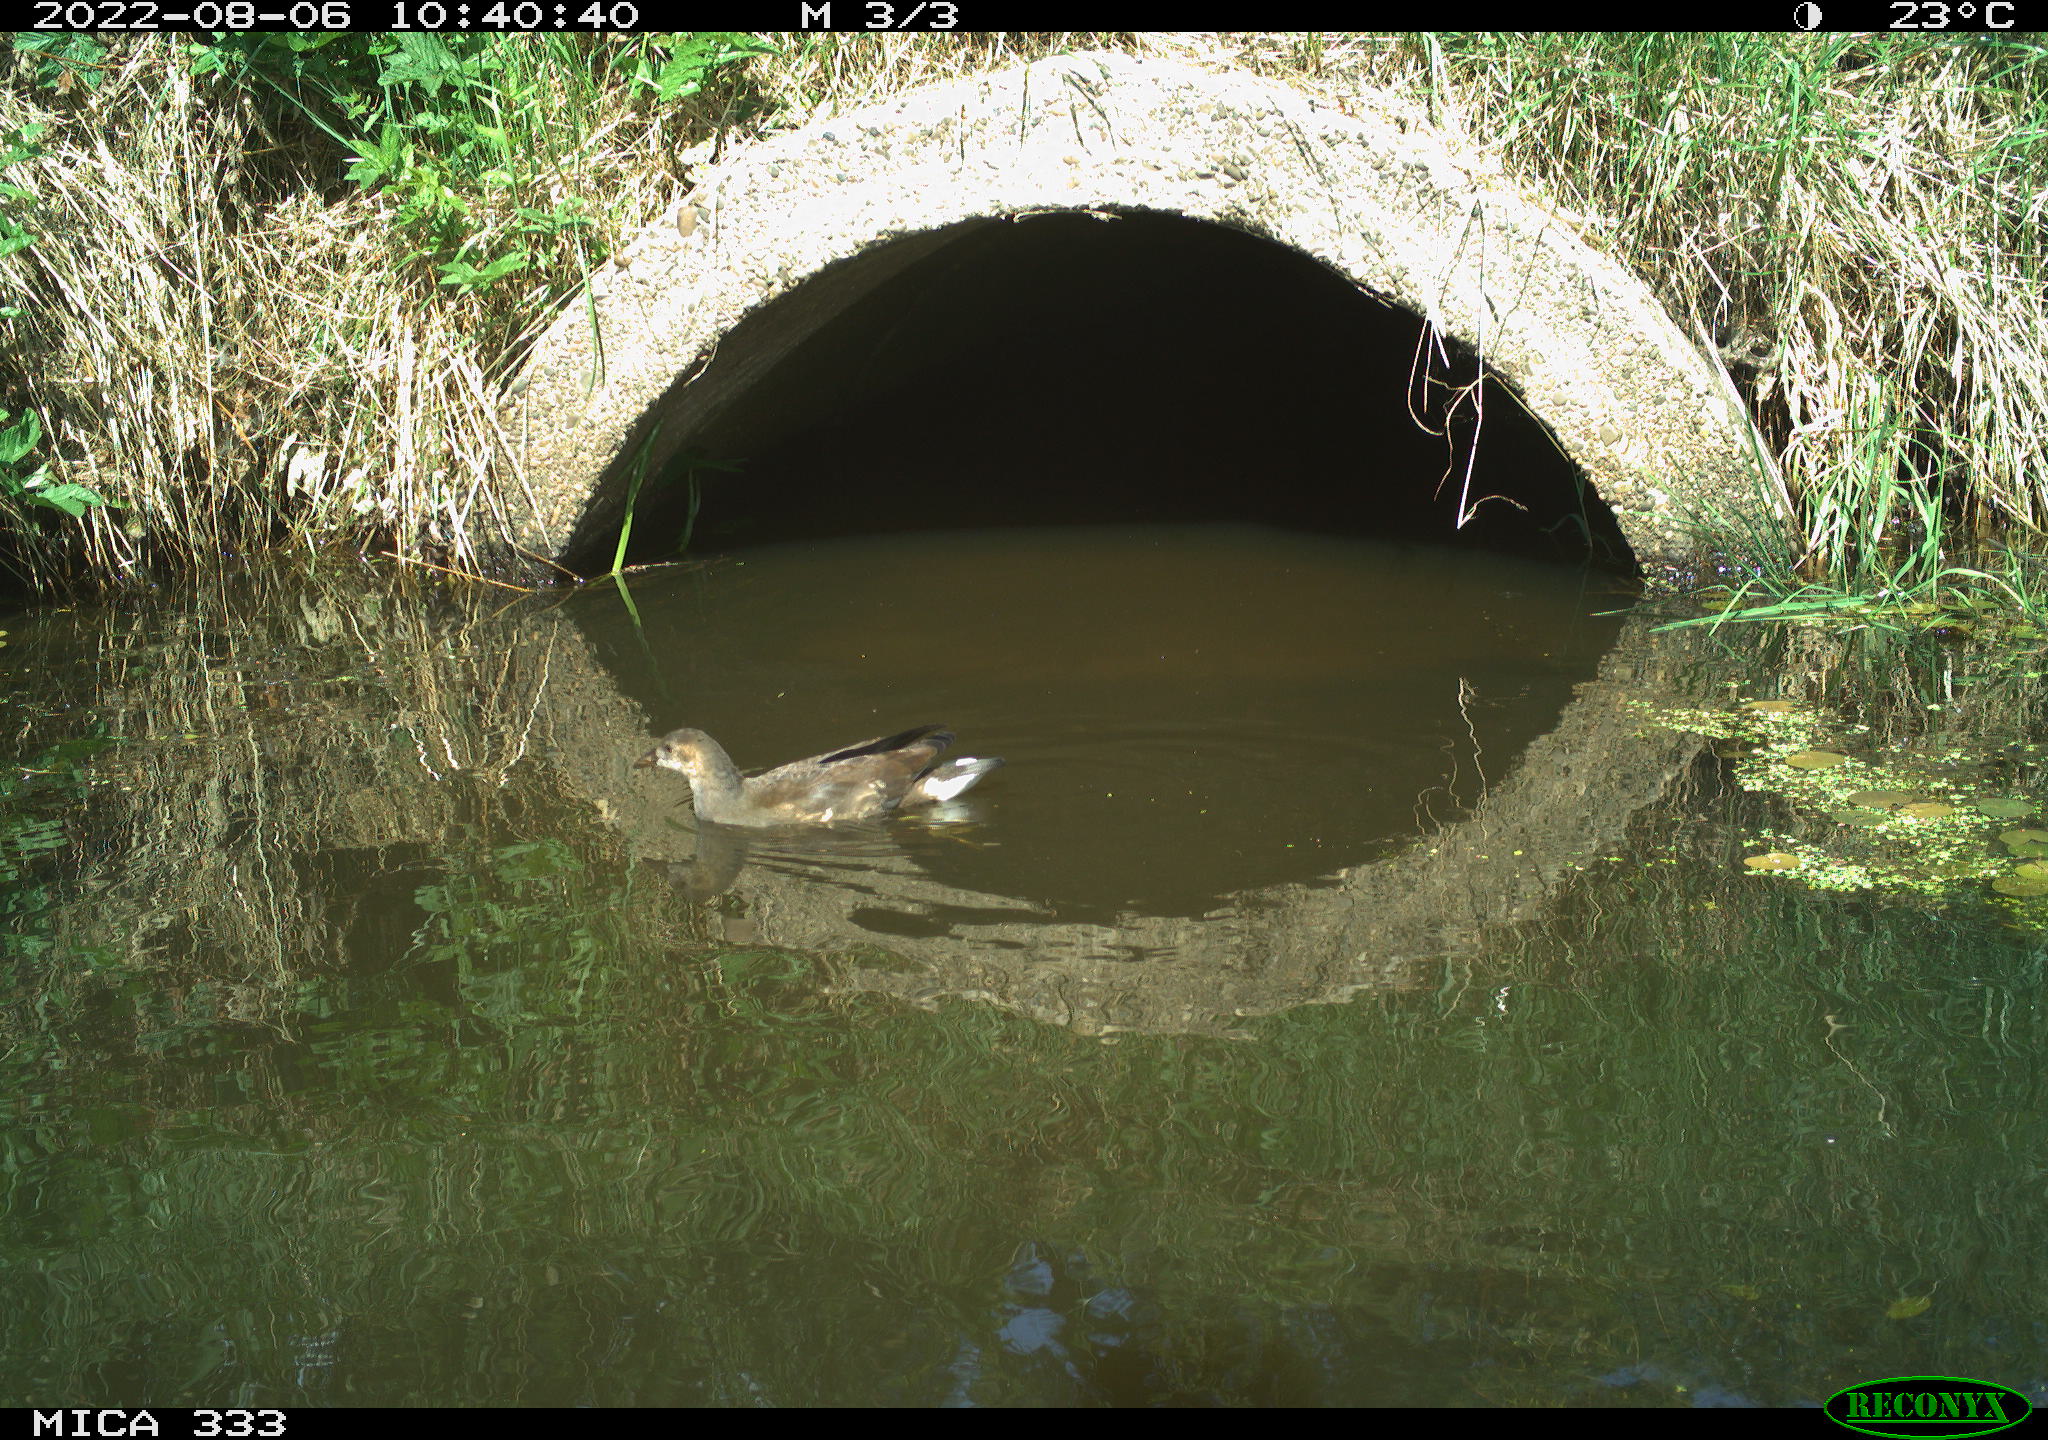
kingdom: Animalia
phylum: Chordata
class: Aves
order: Gruiformes
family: Rallidae
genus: Gallinula
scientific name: Gallinula chloropus
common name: Common moorhen
